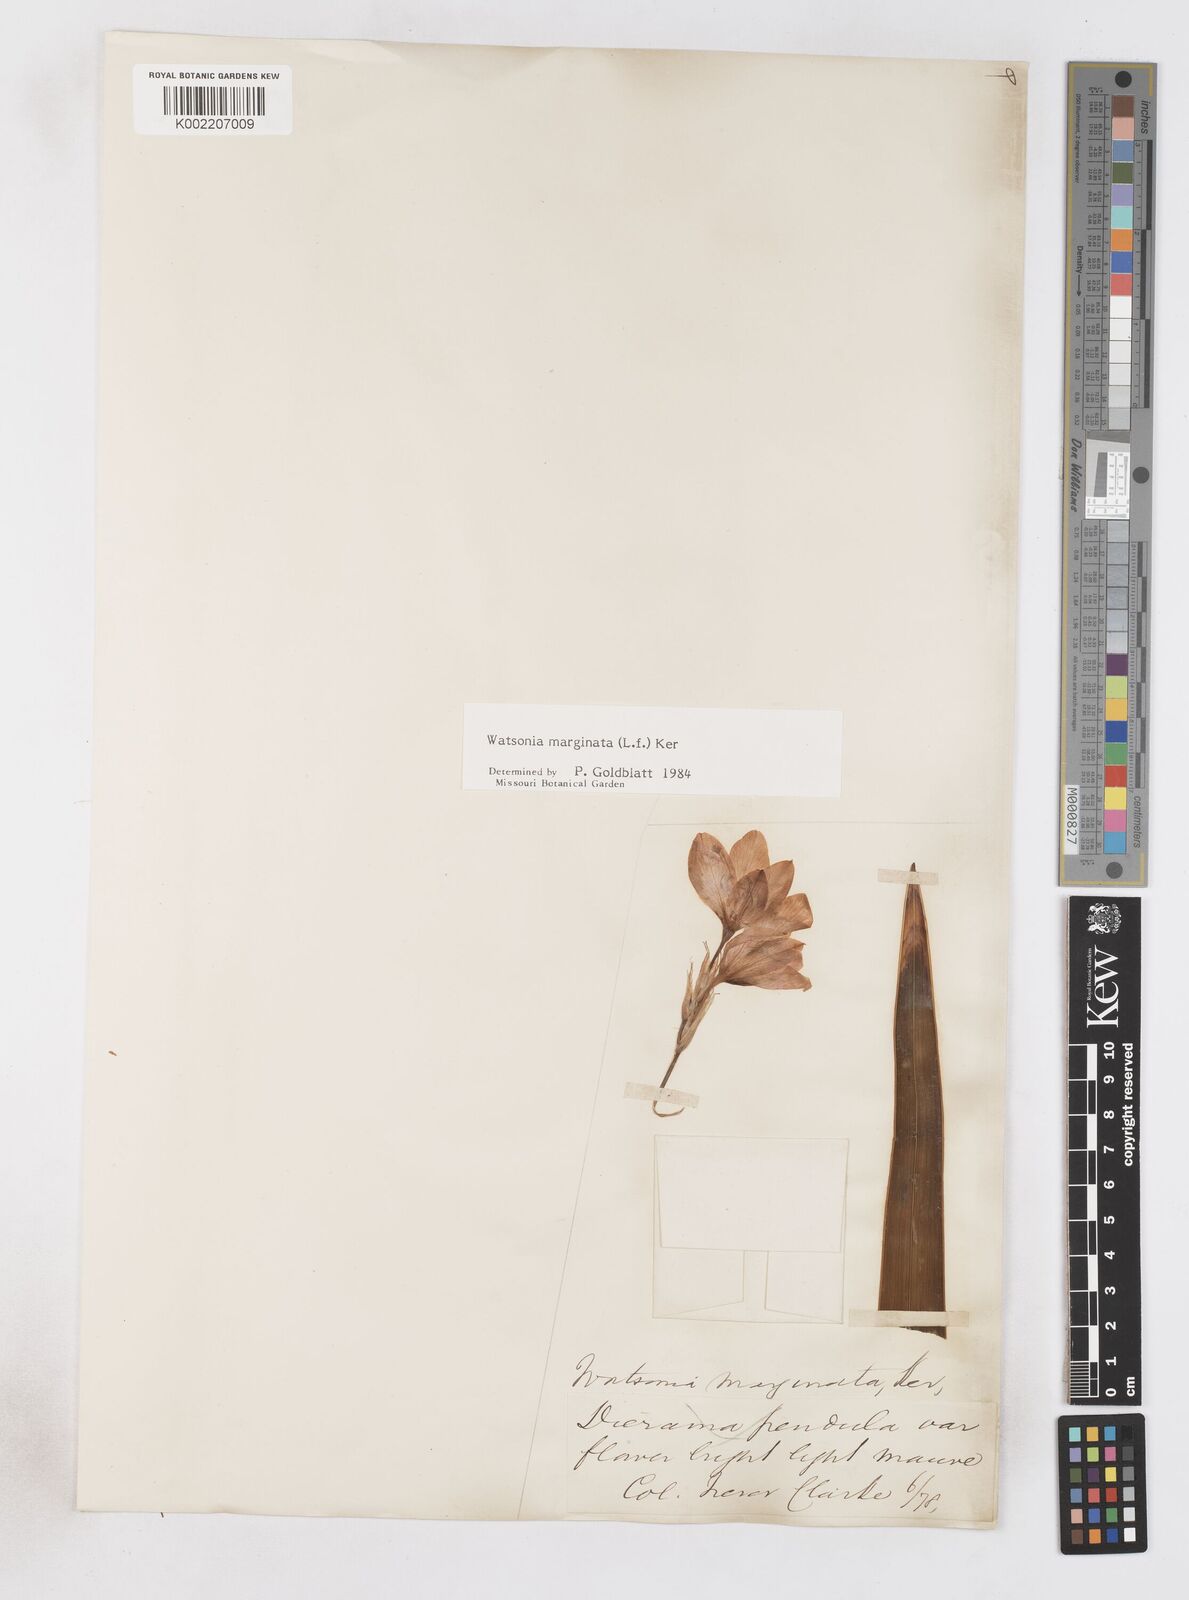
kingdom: Plantae
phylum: Tracheophyta
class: Liliopsida
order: Asparagales
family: Iridaceae
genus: Watsonia
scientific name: Watsonia marginata
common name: Fragrant bugle-lily
